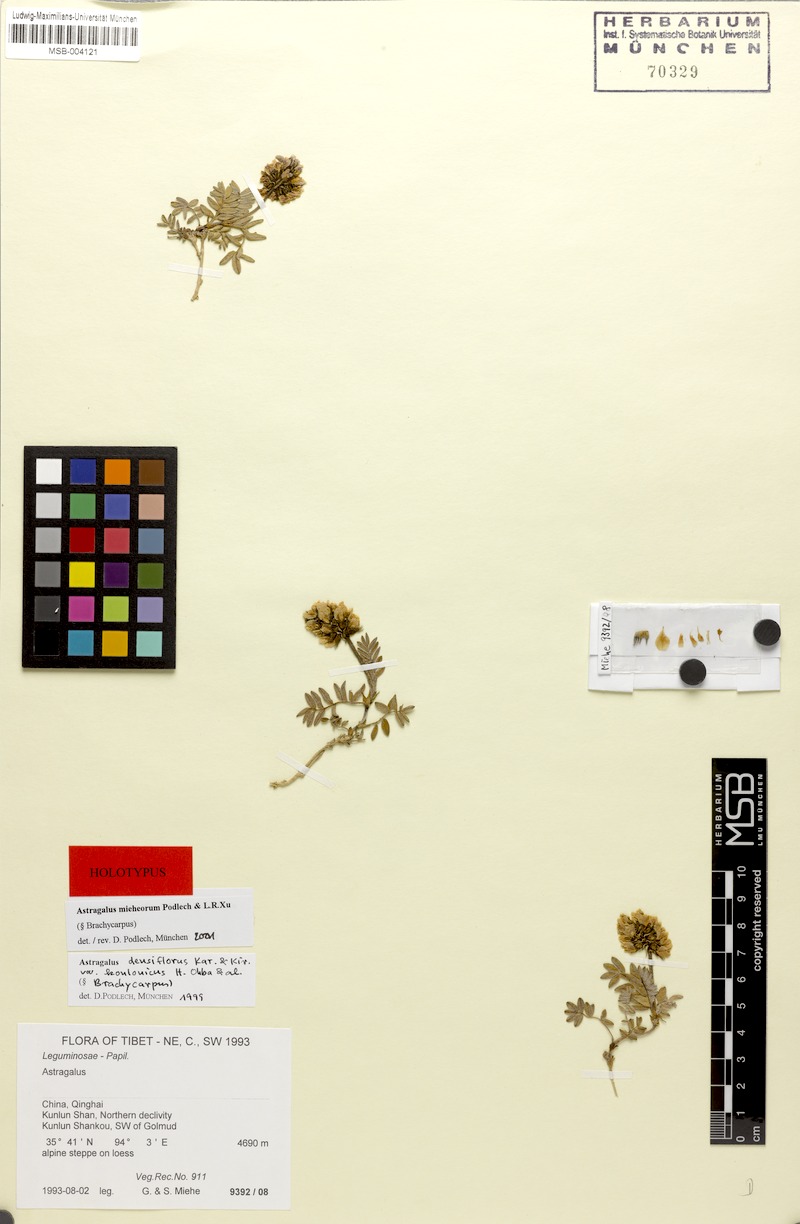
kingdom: Plantae
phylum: Tracheophyta
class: Magnoliopsida
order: Fabales
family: Fabaceae
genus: Astragalus
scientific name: Astragalus mieheorum
